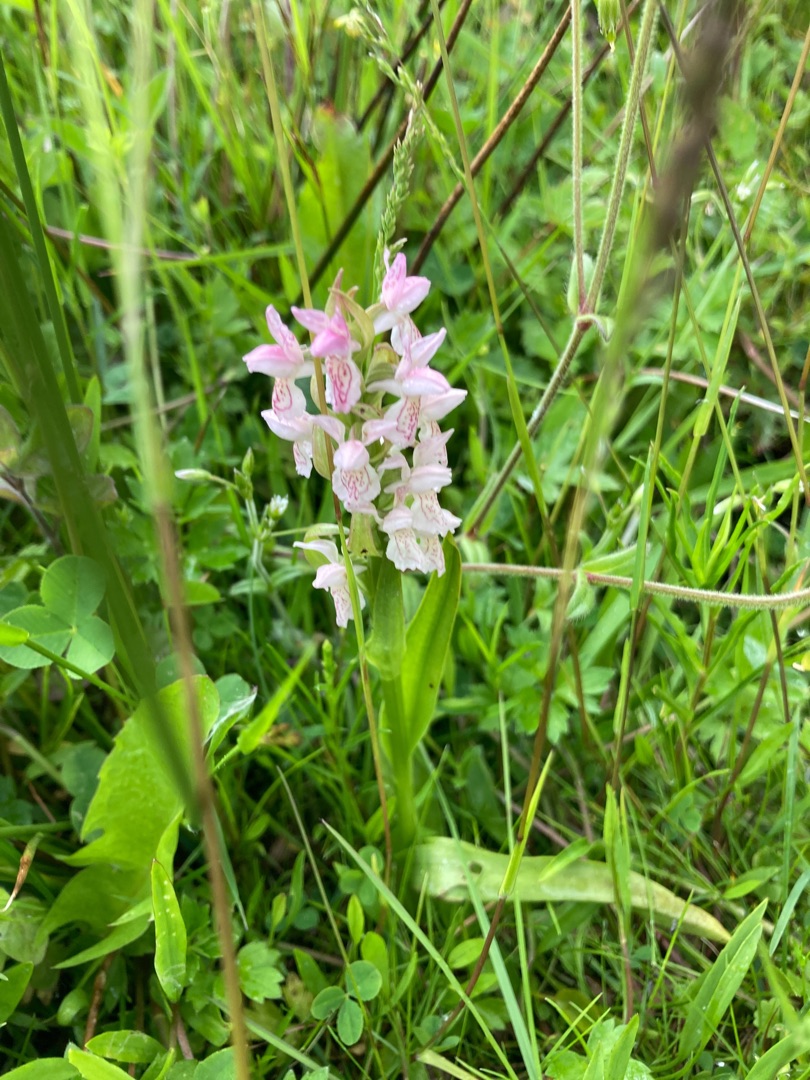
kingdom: Plantae
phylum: Tracheophyta
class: Liliopsida
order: Asparagales
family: Orchidaceae
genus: Dactylorhiza
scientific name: Dactylorhiza incarnata
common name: Kødfarvet gøgeurt
